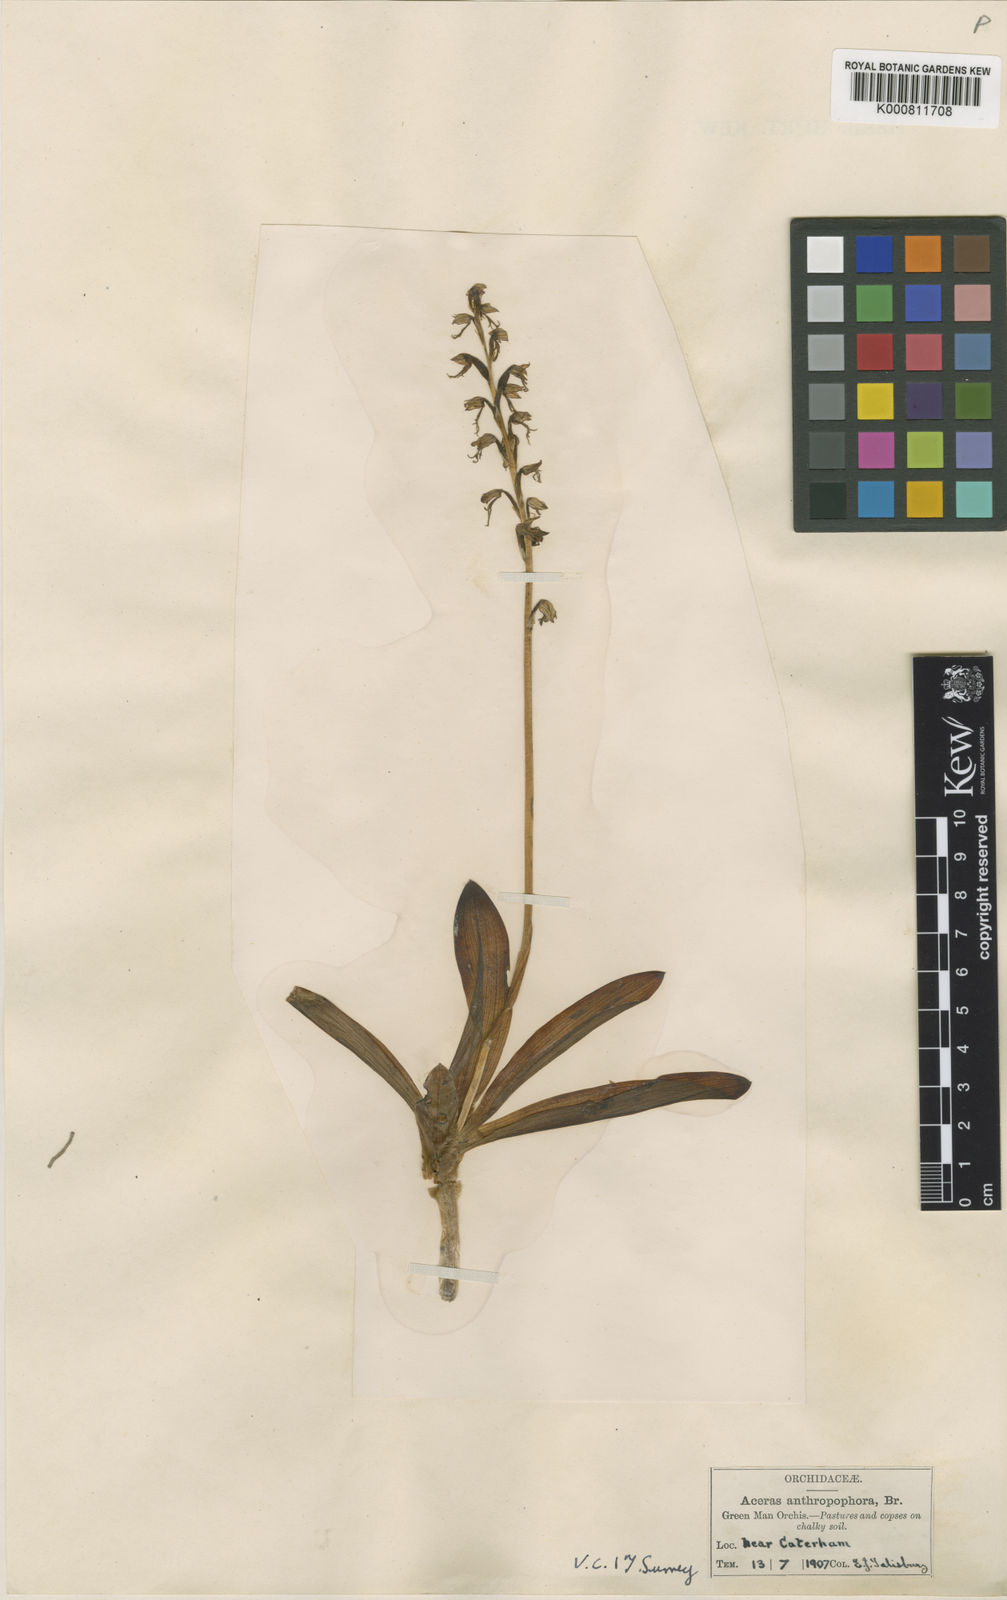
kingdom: Plantae
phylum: Tracheophyta
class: Liliopsida
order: Asparagales
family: Orchidaceae
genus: Orchis
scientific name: Orchis
